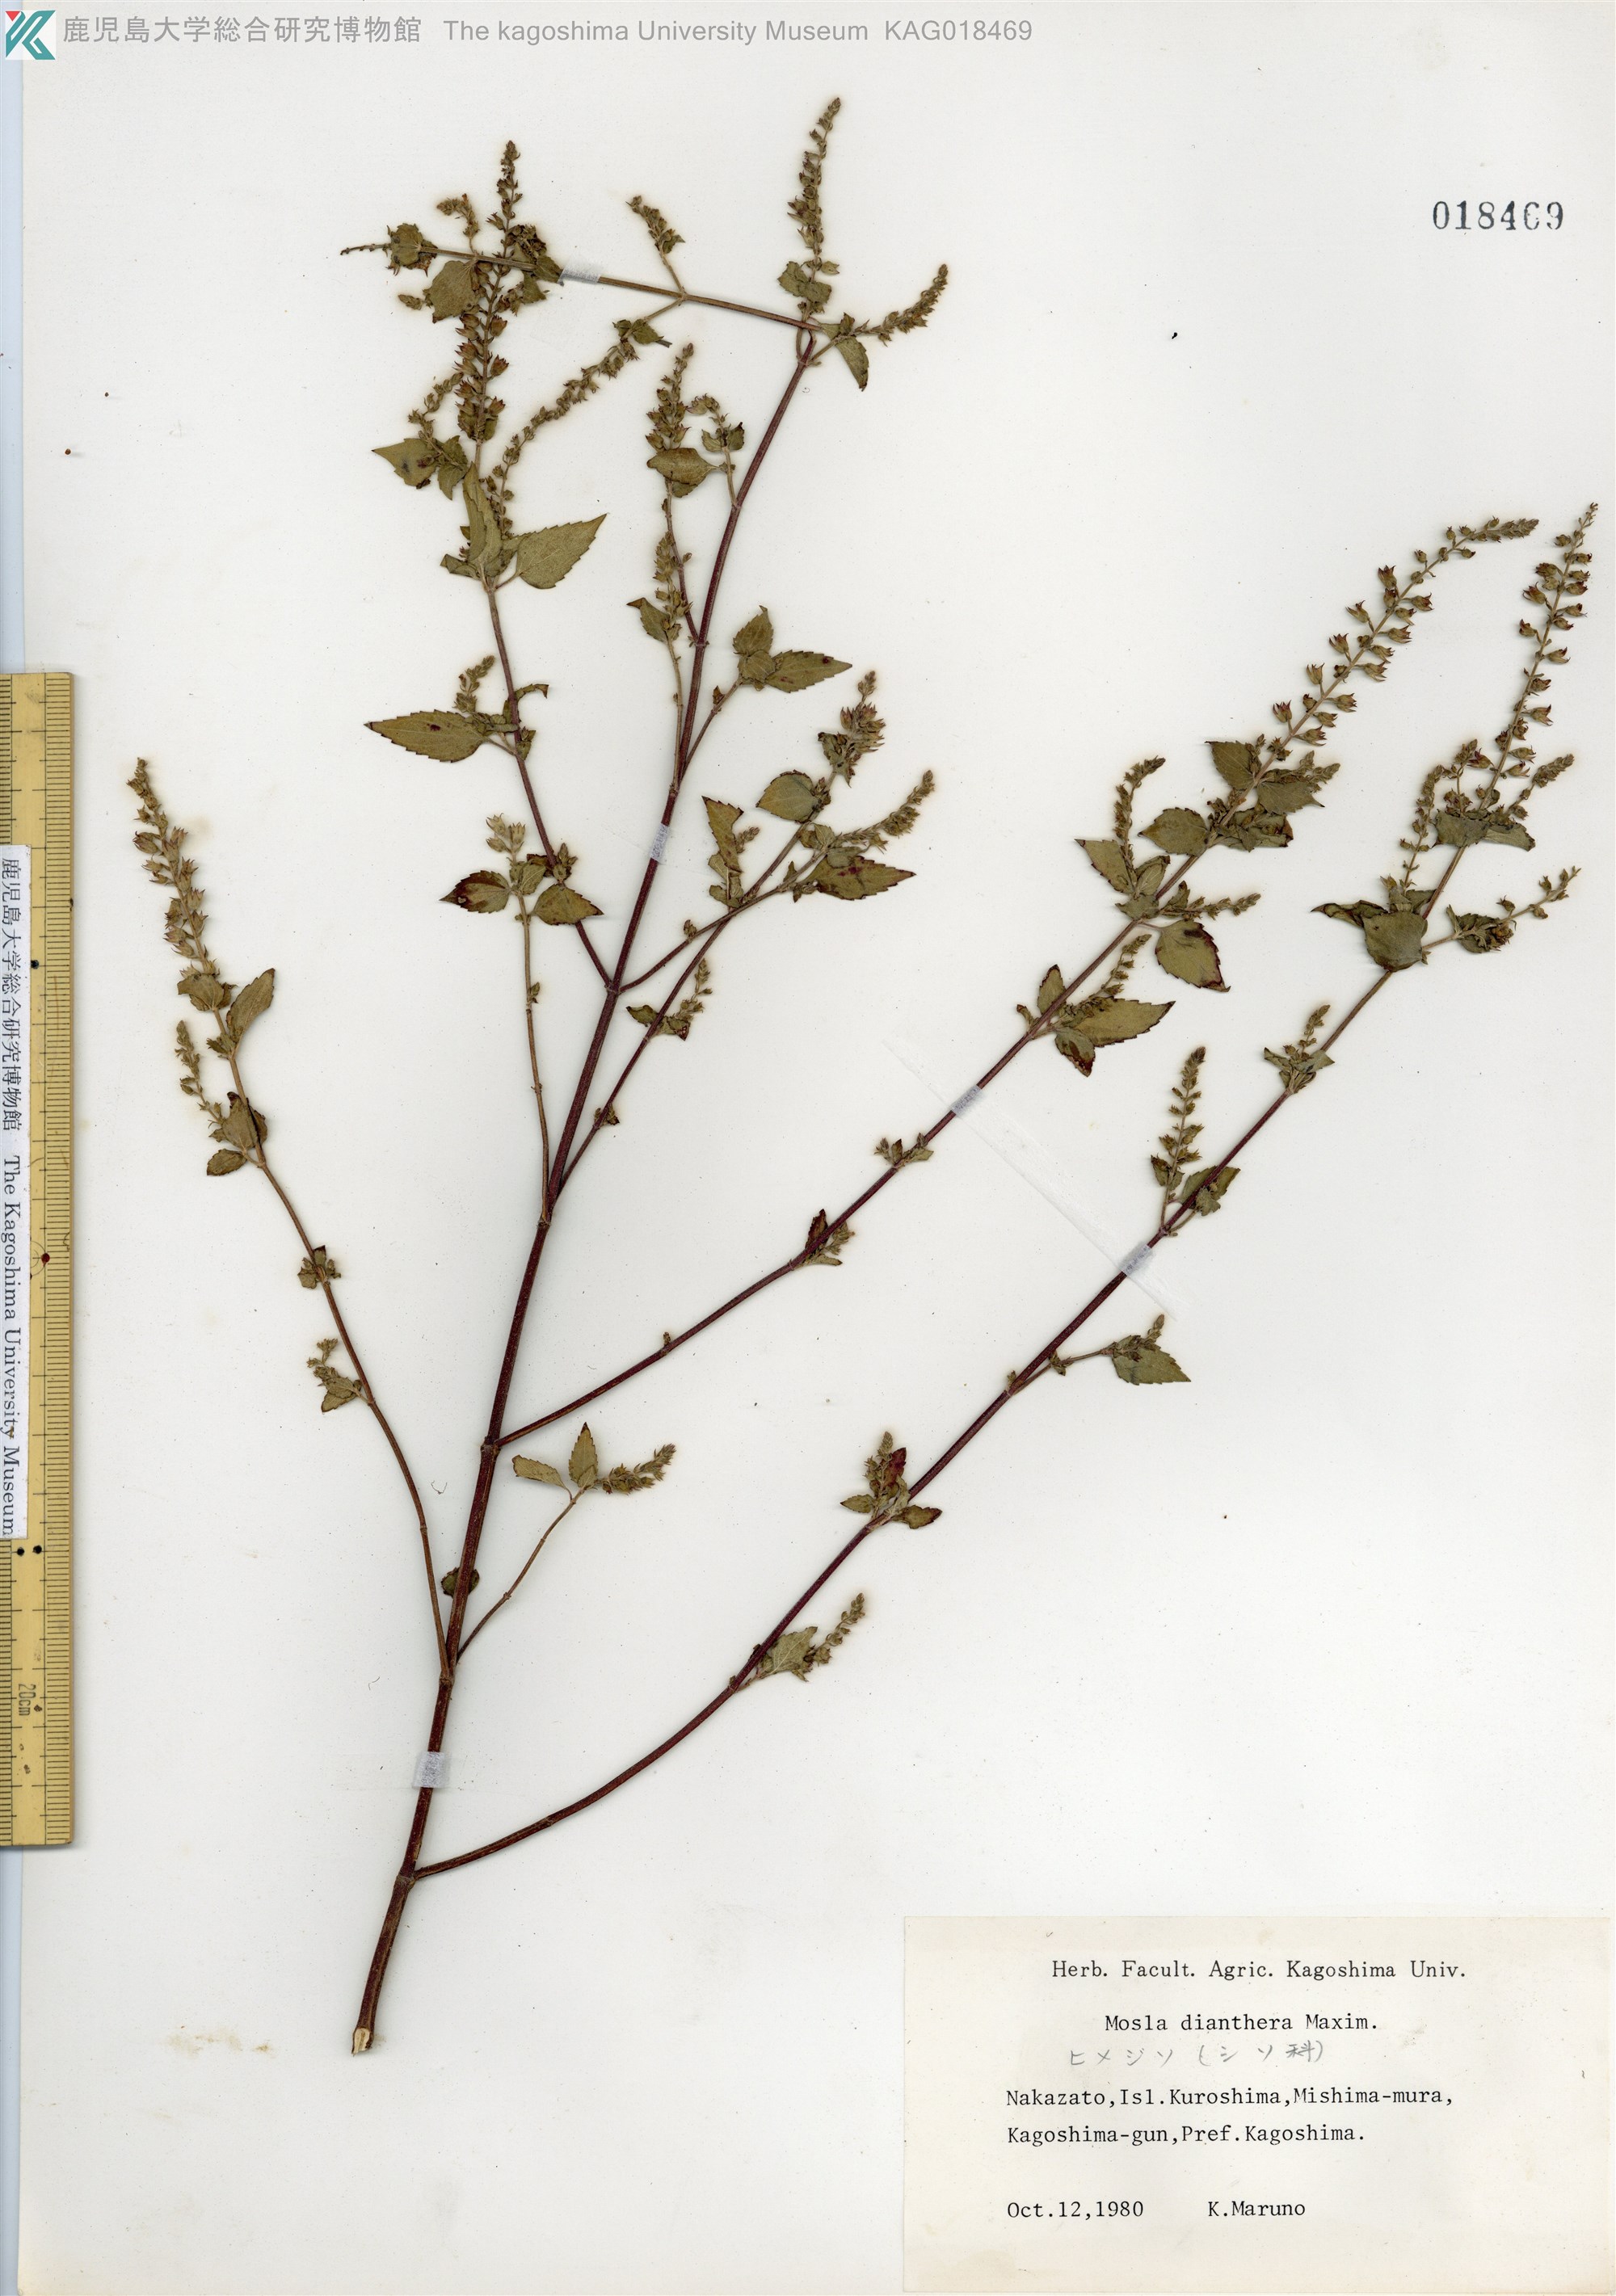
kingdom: Plantae
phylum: Tracheophyta
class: Magnoliopsida
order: Lamiales
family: Lamiaceae
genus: Mosla
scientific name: Mosla dianthera
